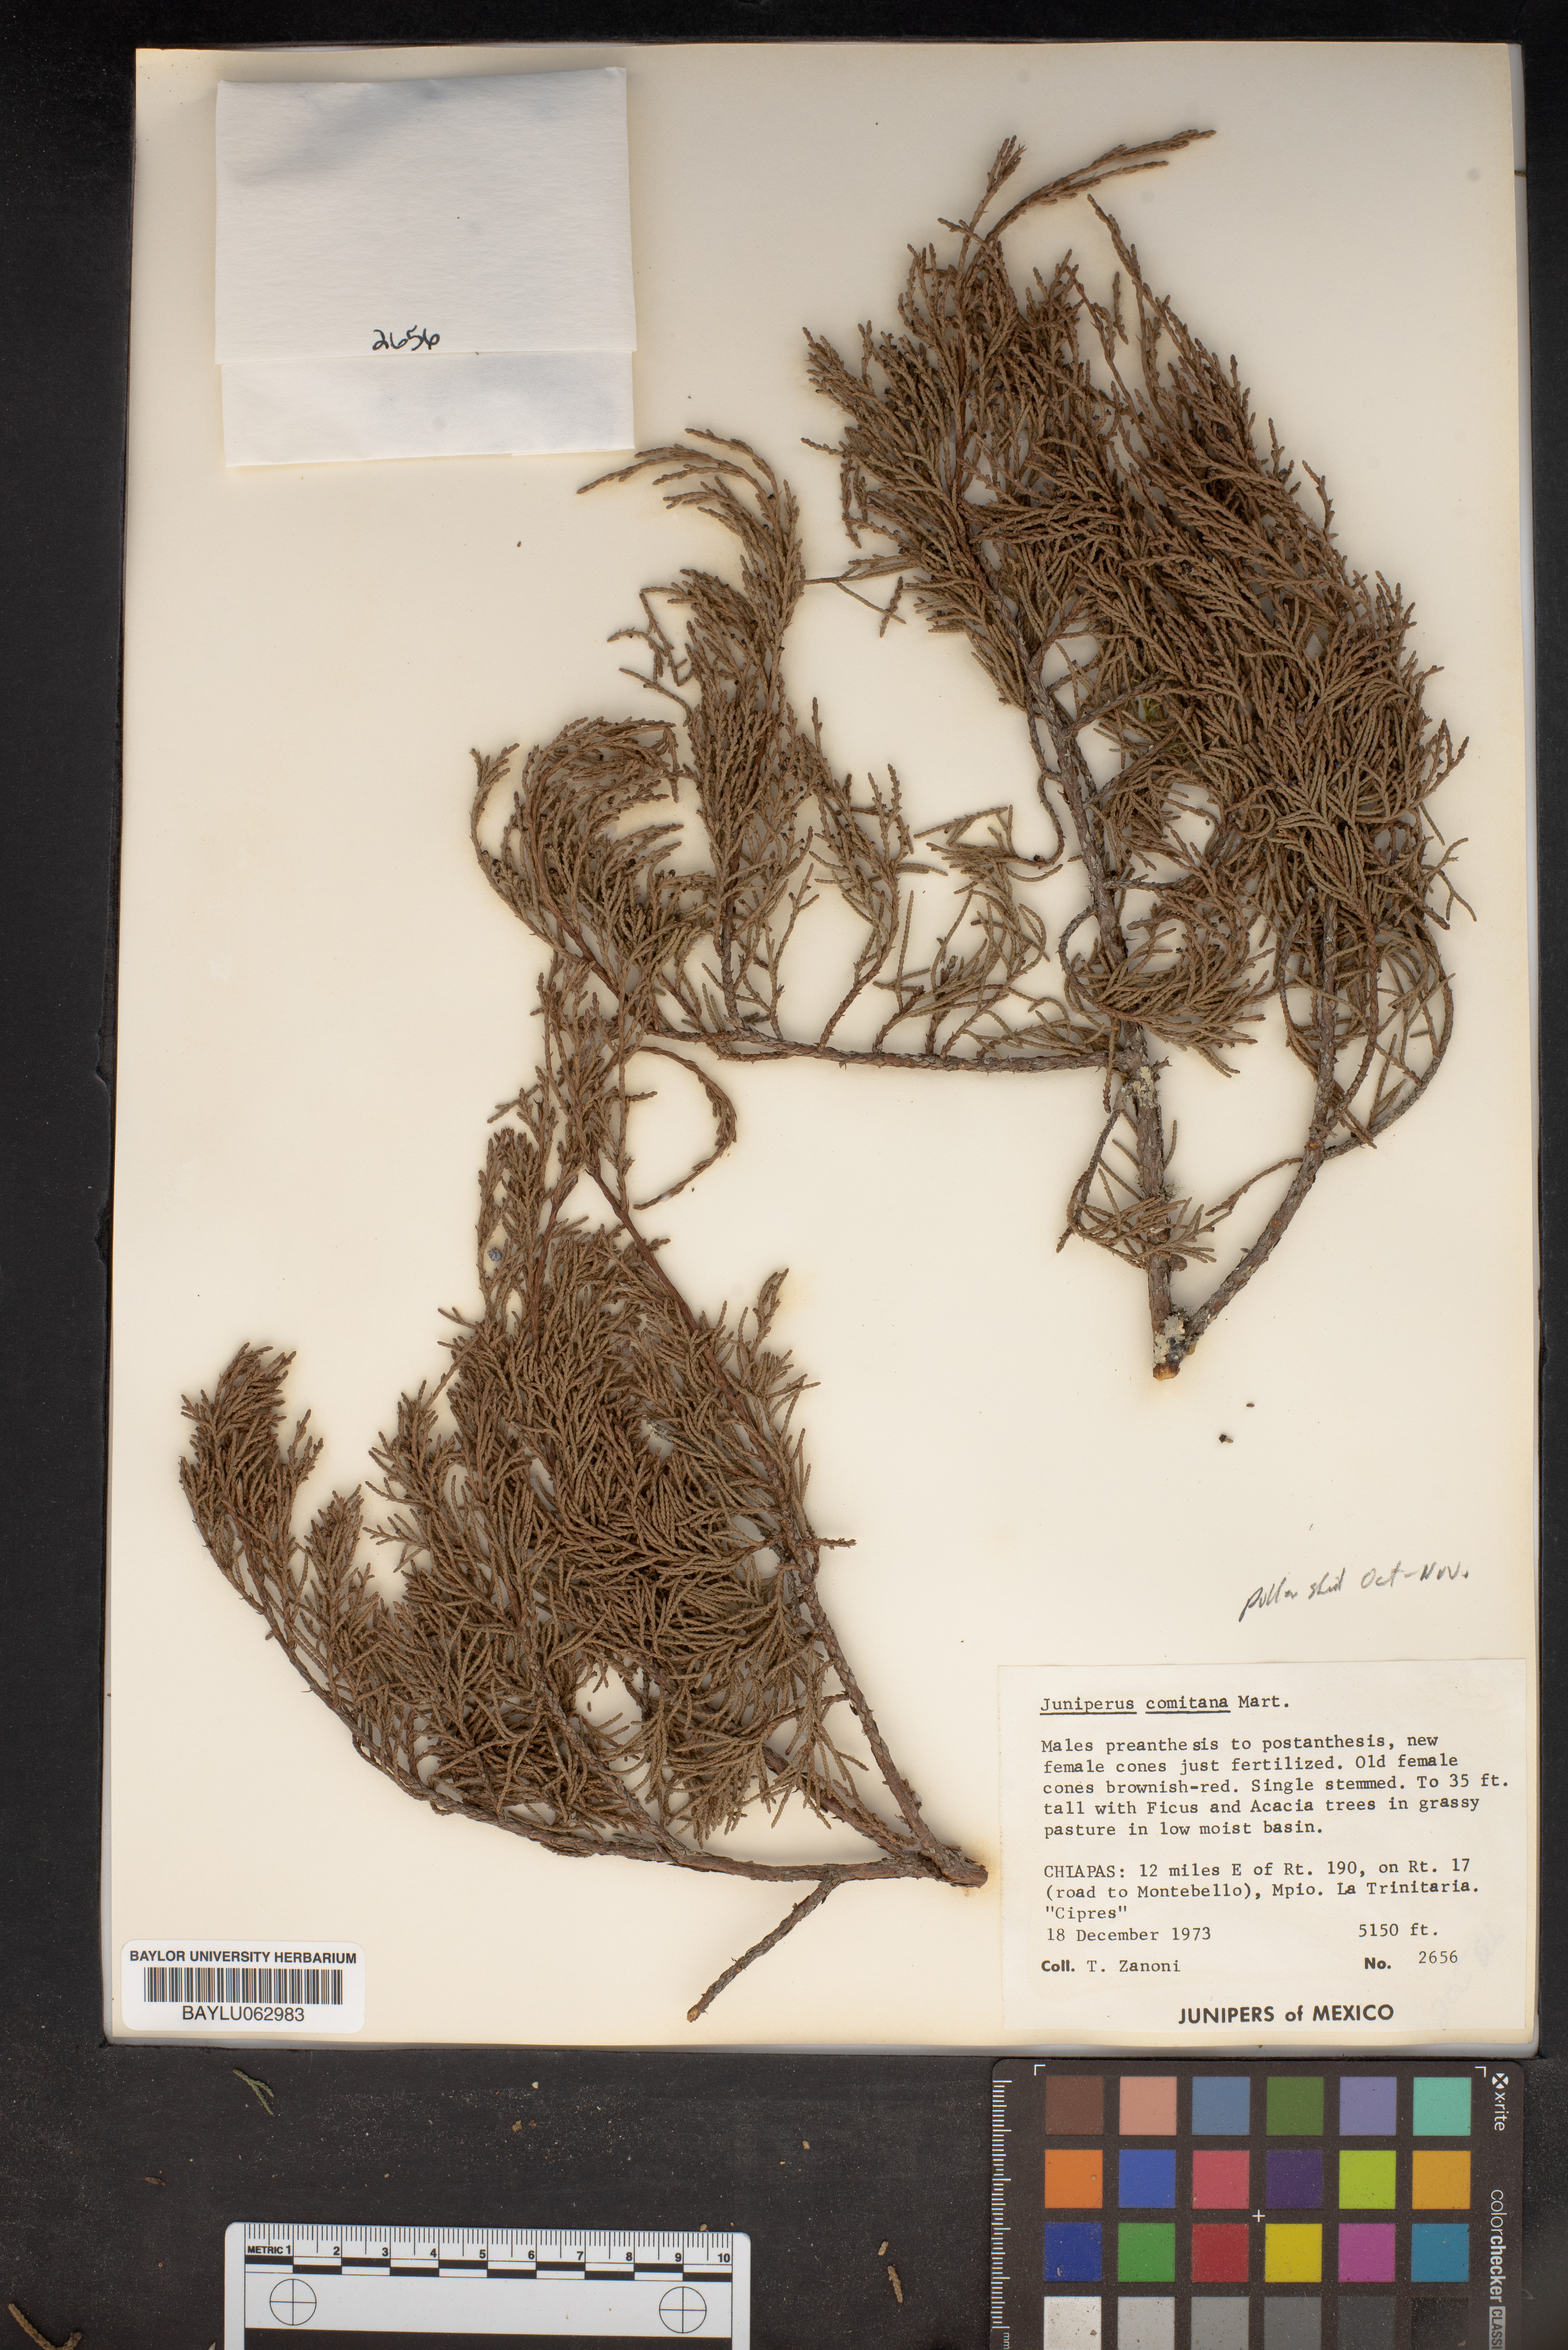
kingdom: Plantae
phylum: Tracheophyta
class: Pinopsida
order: Pinales
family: Cupressaceae
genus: Juniperus
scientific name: Juniperus comitana
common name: Comitan juniper
